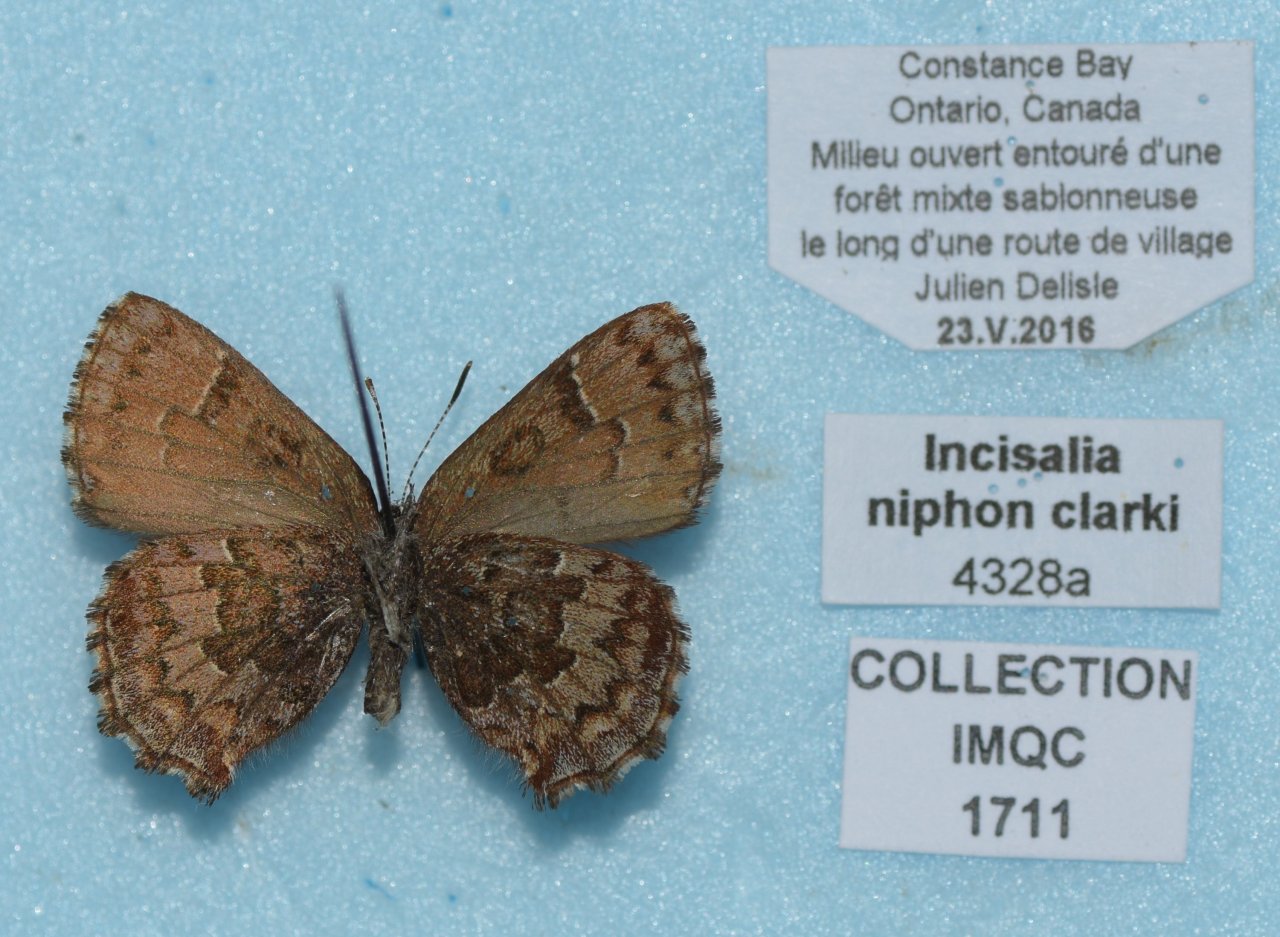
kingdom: Animalia
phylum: Arthropoda
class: Insecta
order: Lepidoptera
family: Lycaenidae
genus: Incisalia
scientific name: Incisalia niphon
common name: Eastern Pine Elfin
